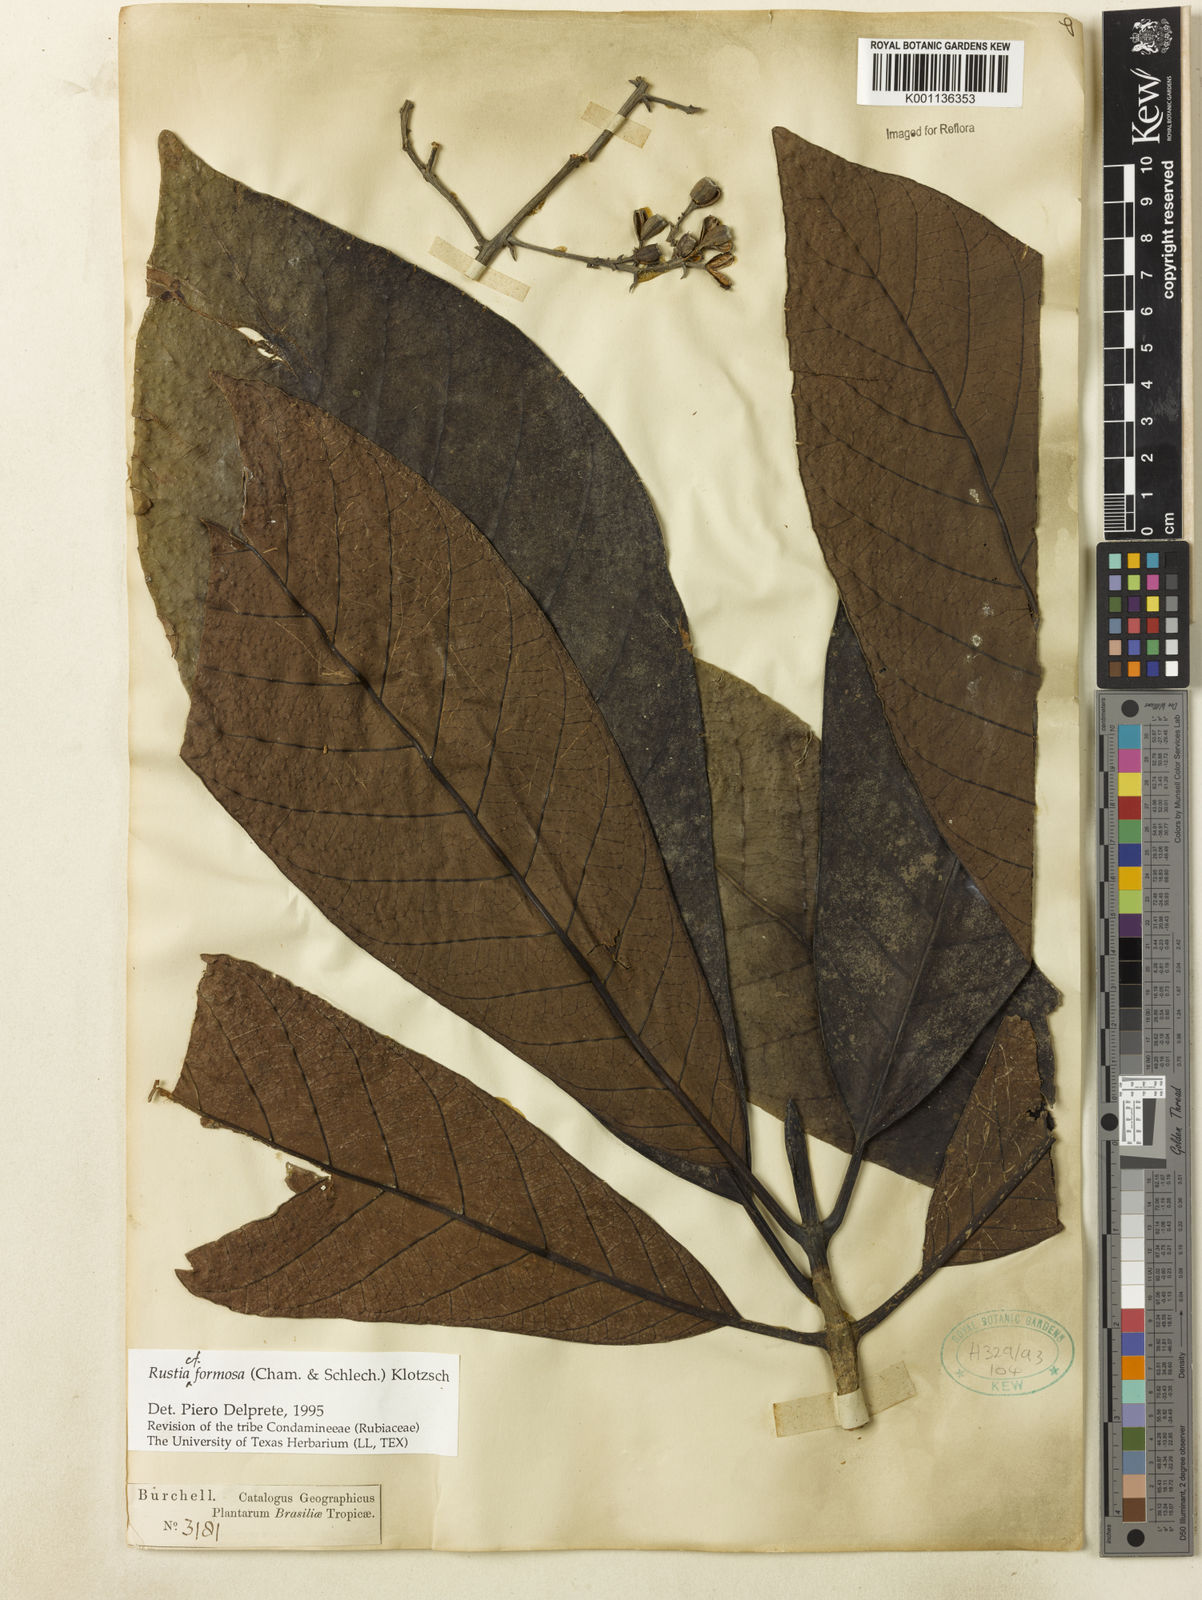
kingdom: Plantae
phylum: Tracheophyta
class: Magnoliopsida
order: Gentianales
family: Rubiaceae
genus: Rustia
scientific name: Rustia formosa
